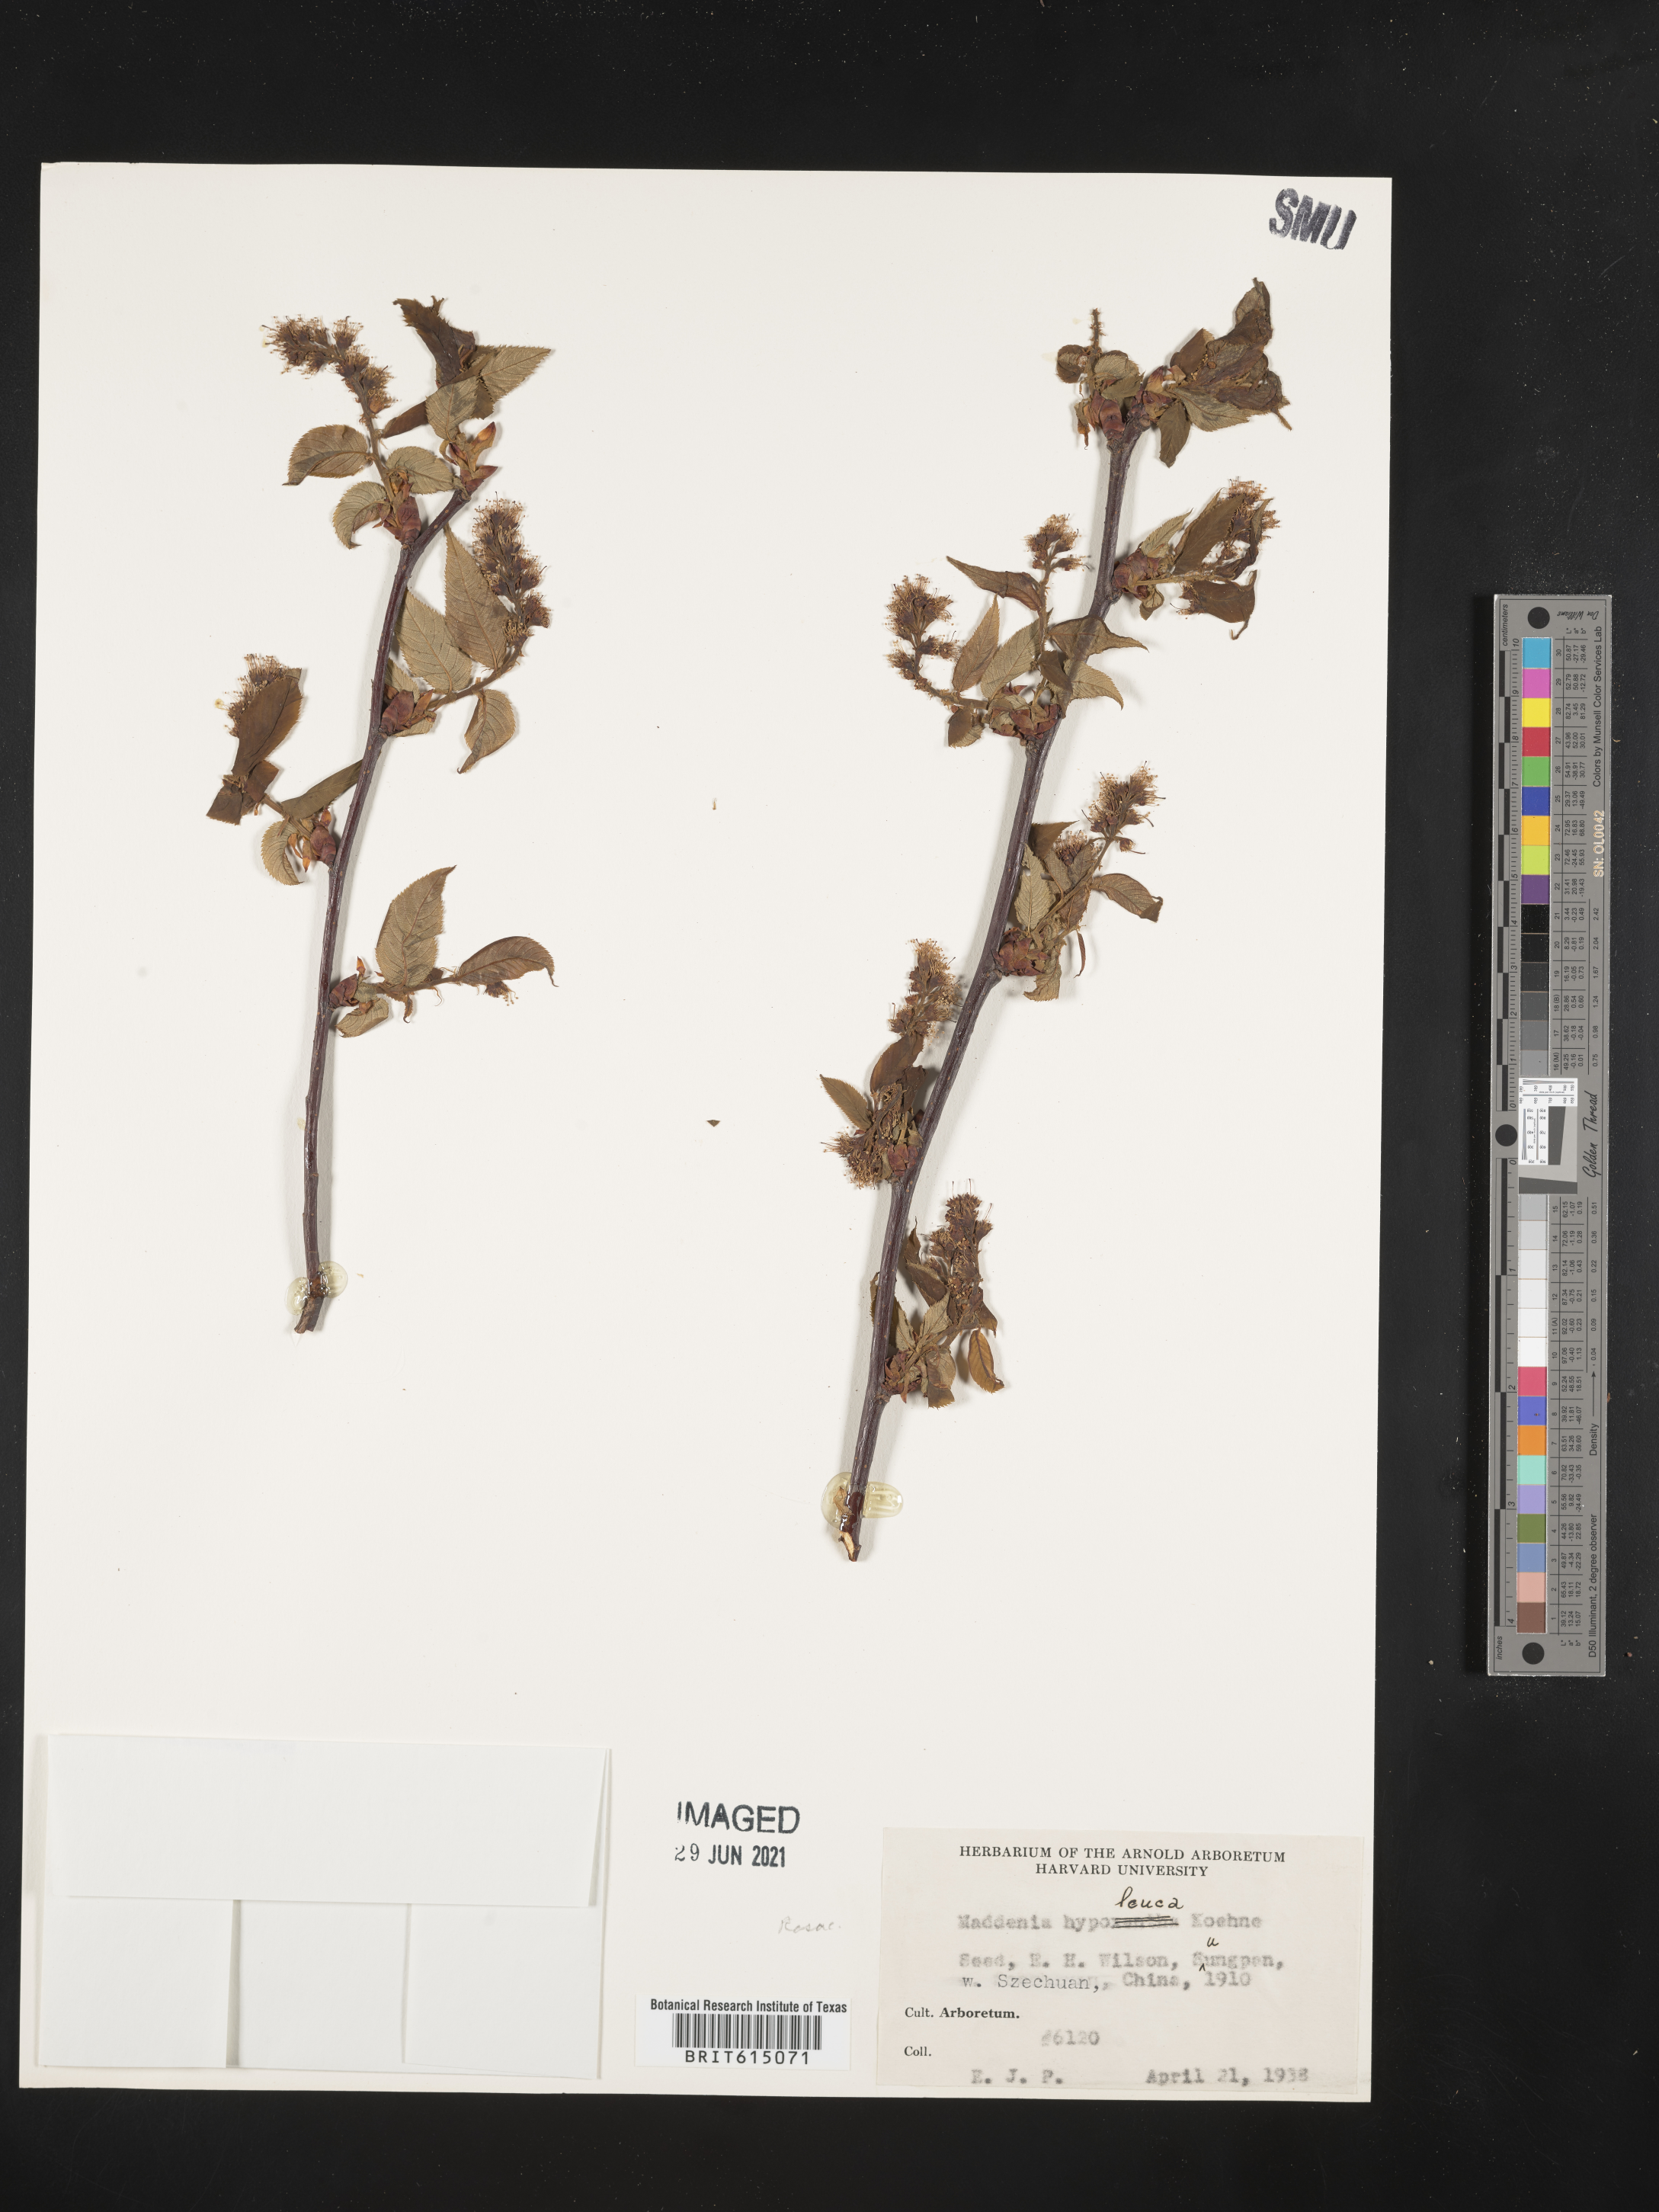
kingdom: Plantae
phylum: Tracheophyta
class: Magnoliopsida
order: Rosales
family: Rosaceae
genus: Prunus
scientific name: Prunus hypoleuca
